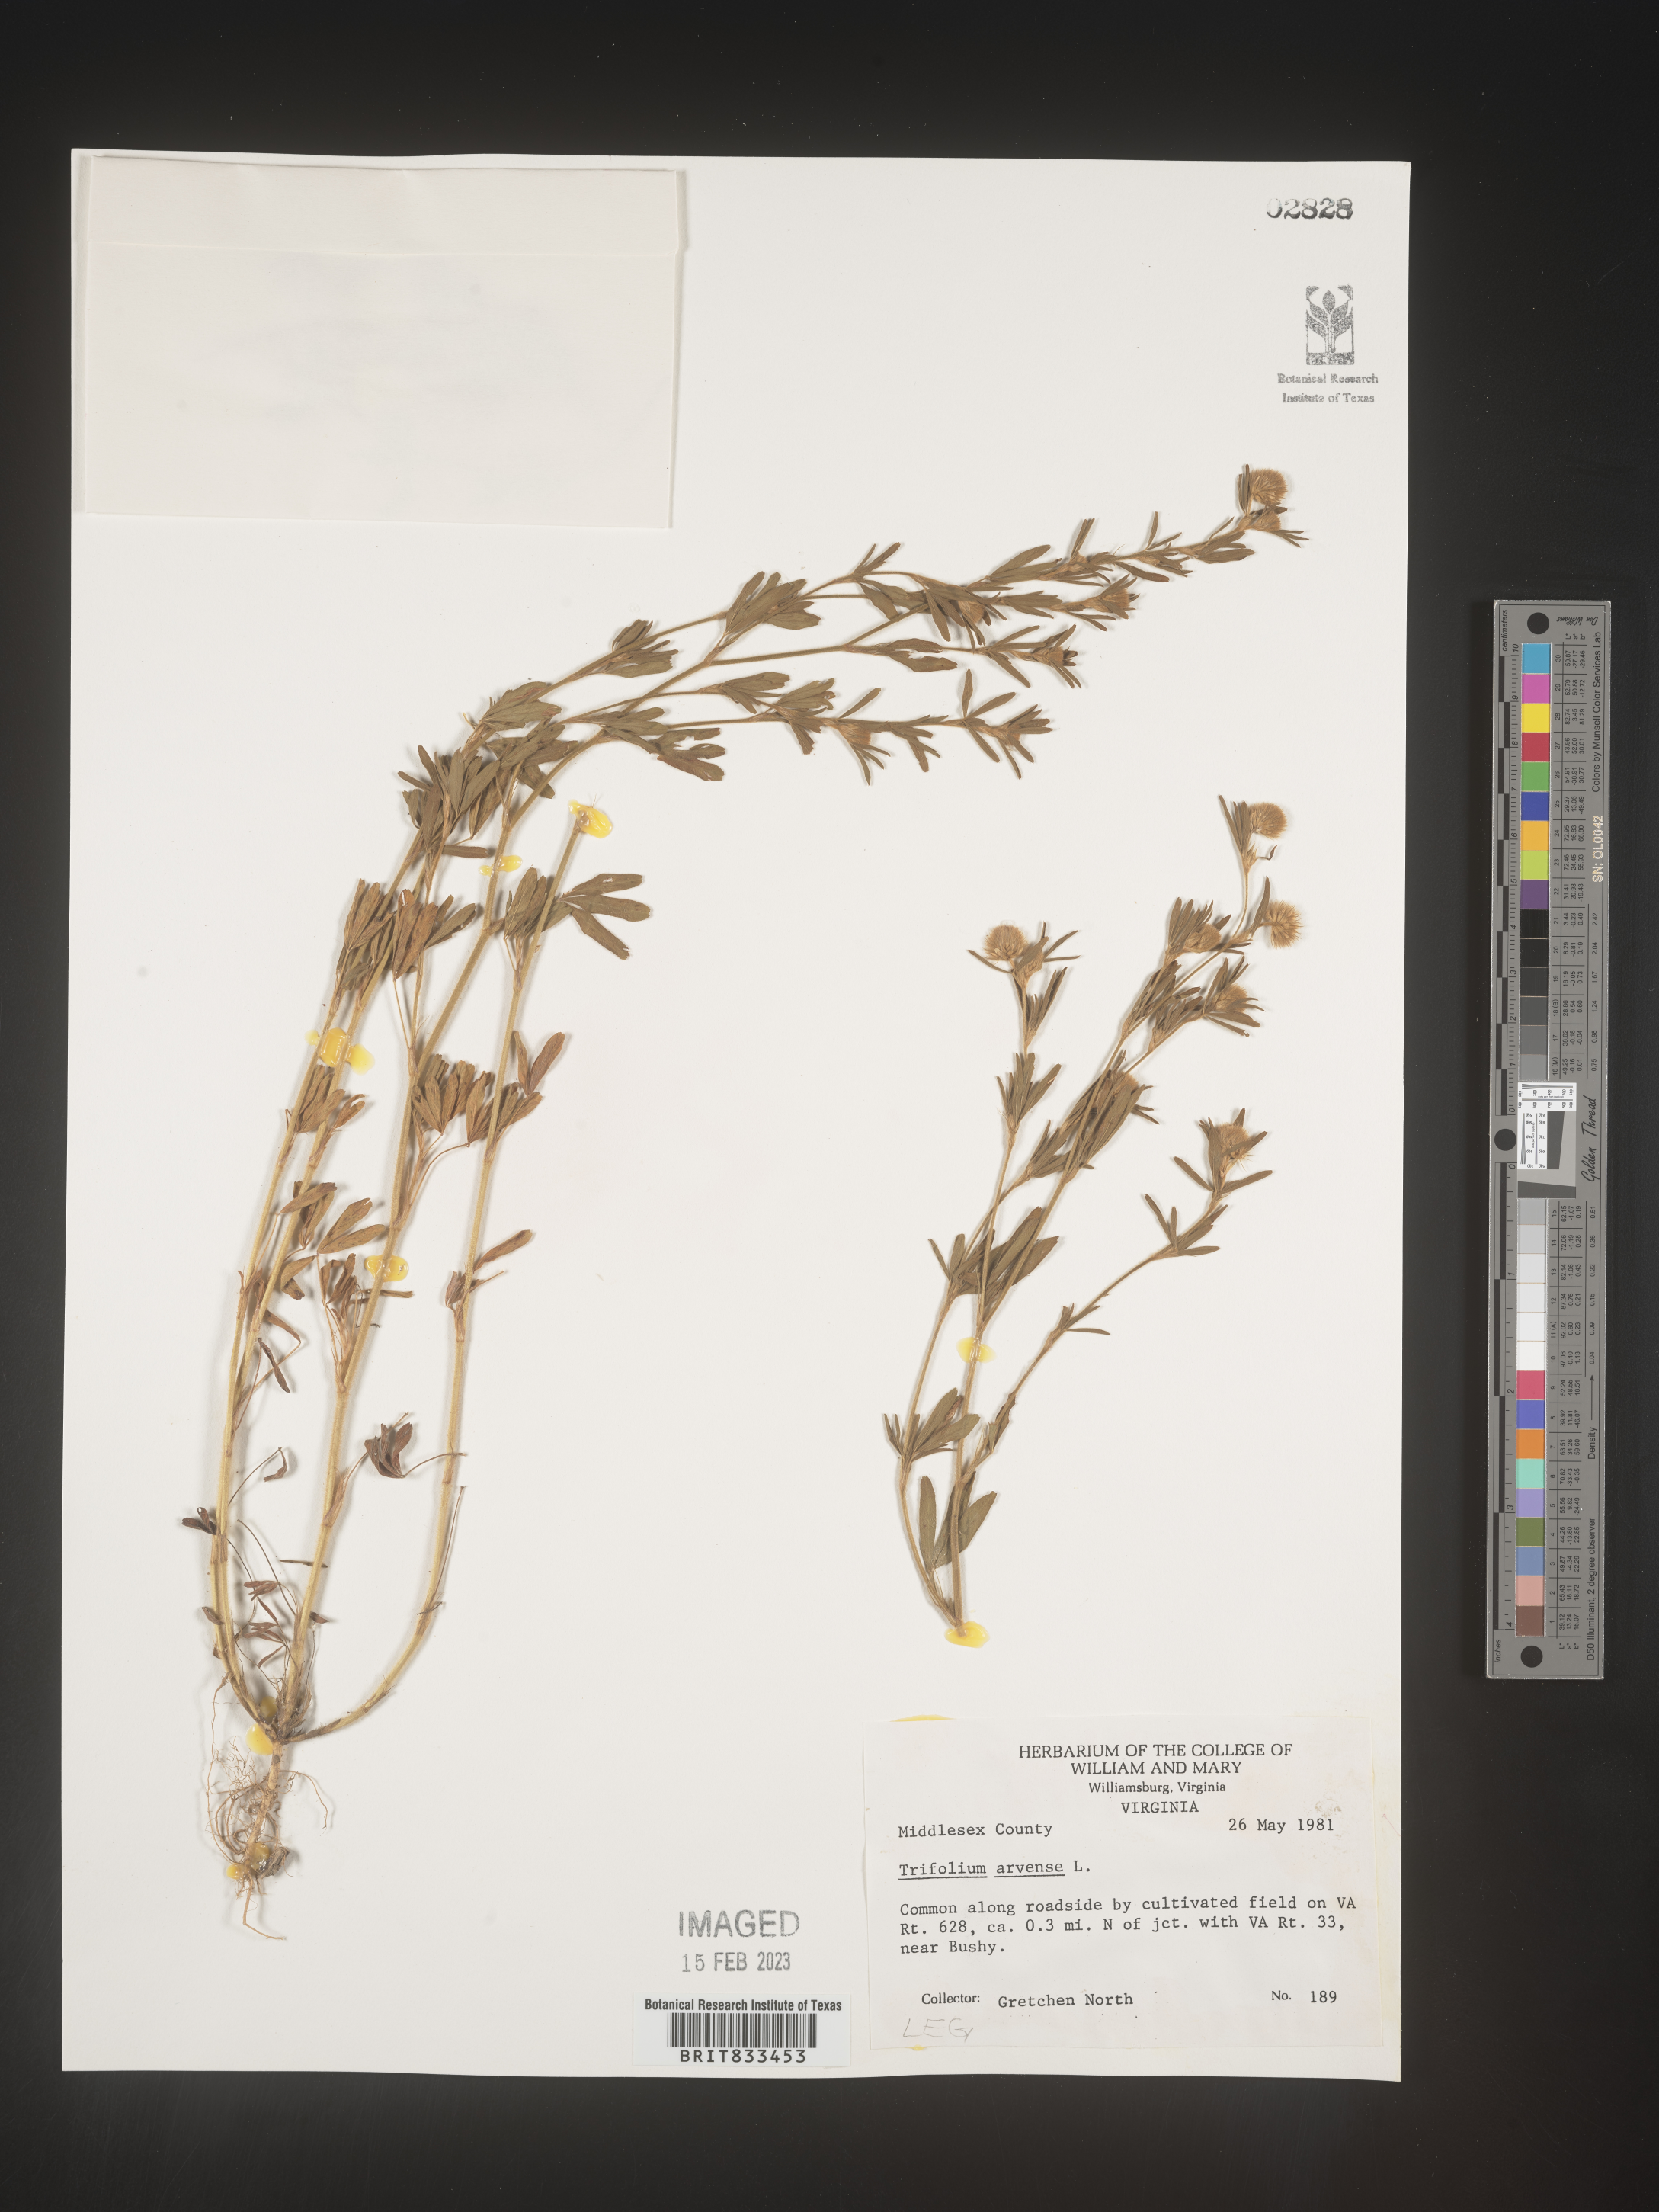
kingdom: Plantae
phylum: Tracheophyta
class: Magnoliopsida
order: Fabales
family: Fabaceae
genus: Trifolium
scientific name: Trifolium arvense
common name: Hare's-foot clover
